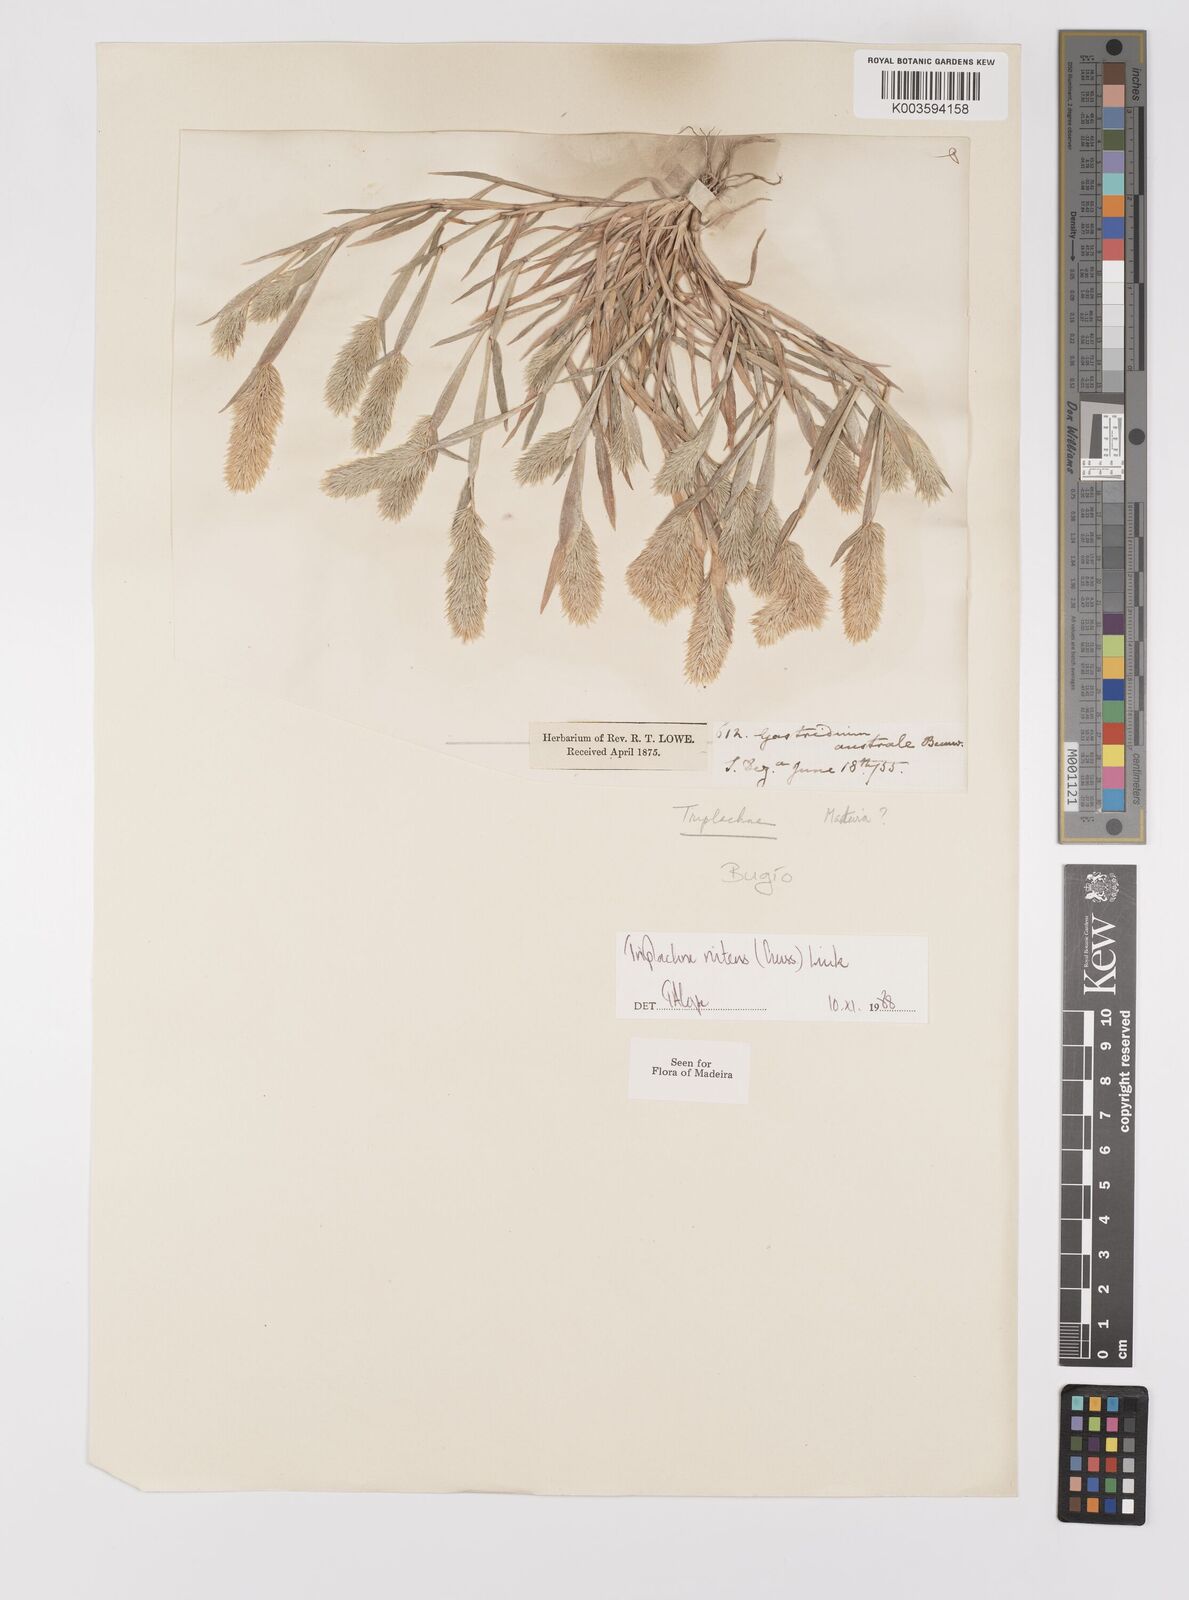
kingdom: Plantae
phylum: Tracheophyta
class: Liliopsida
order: Poales
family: Poaceae
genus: Triplachne
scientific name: Triplachne nitens
